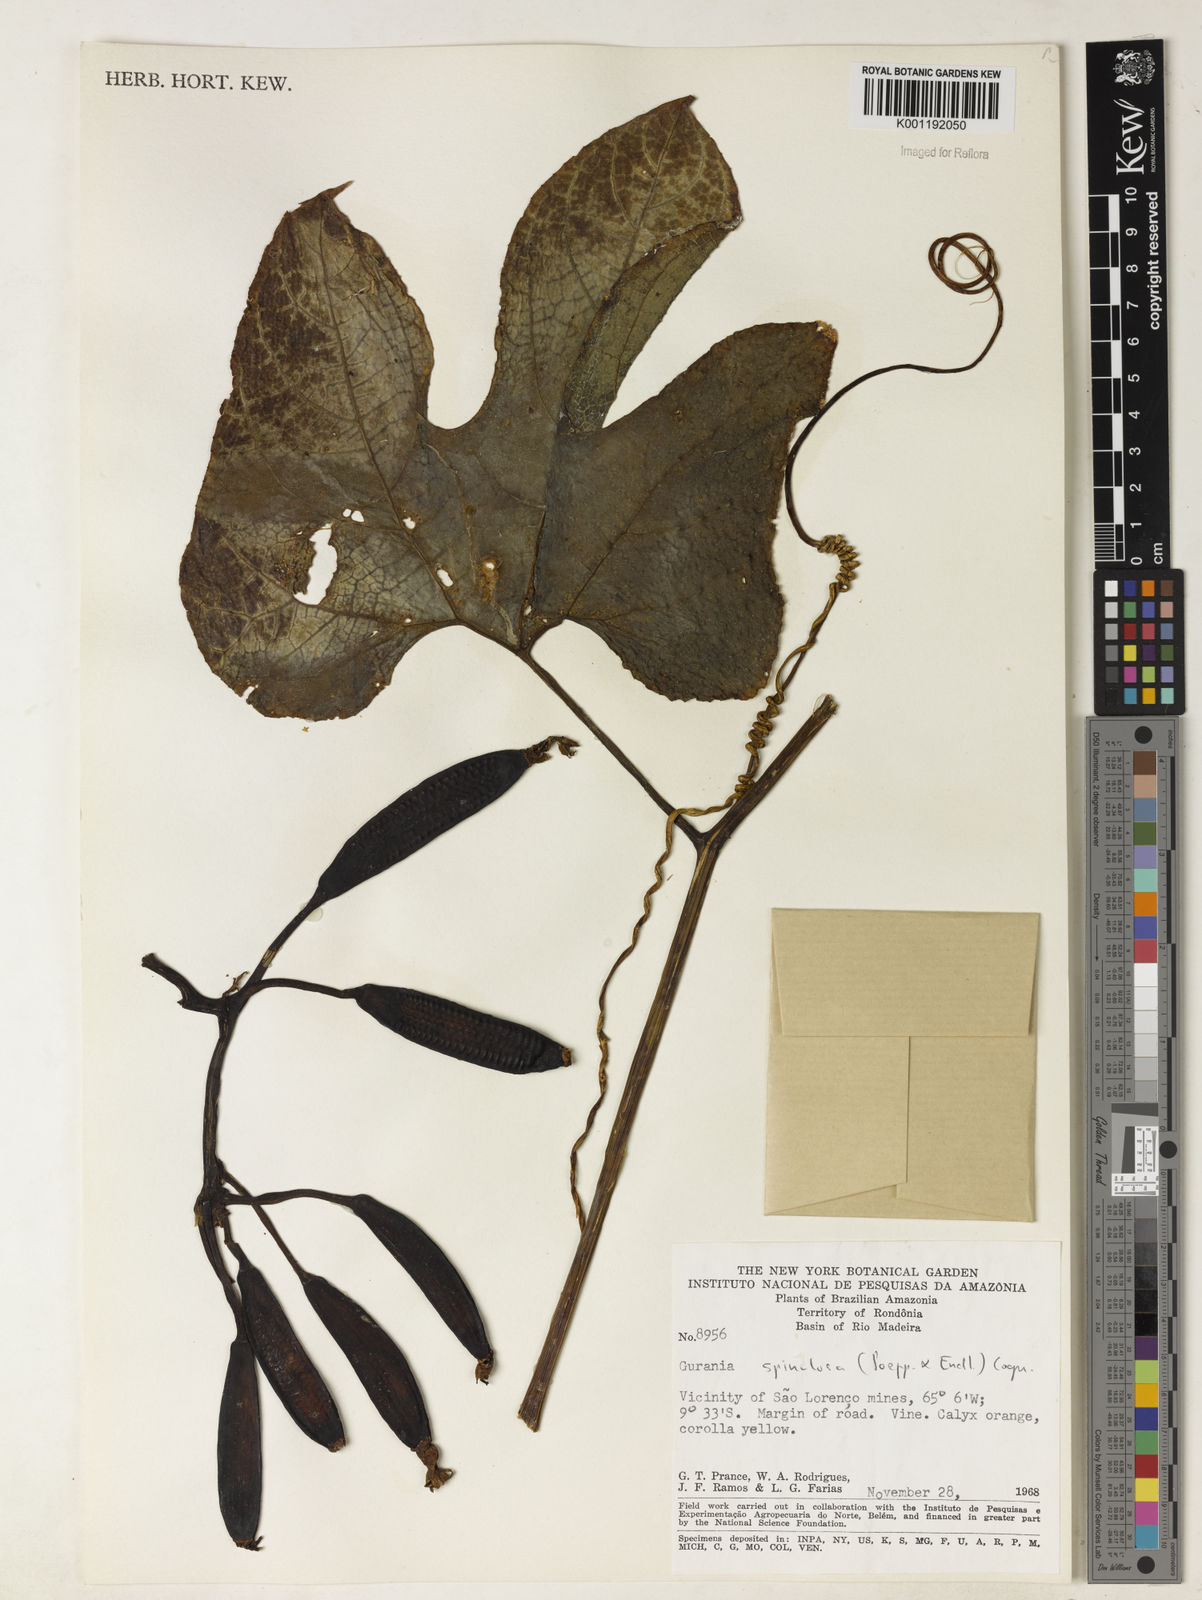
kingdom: Plantae
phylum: Tracheophyta
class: Magnoliopsida
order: Cucurbitales
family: Cucurbitaceae
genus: Gurania
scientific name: Gurania lobata
